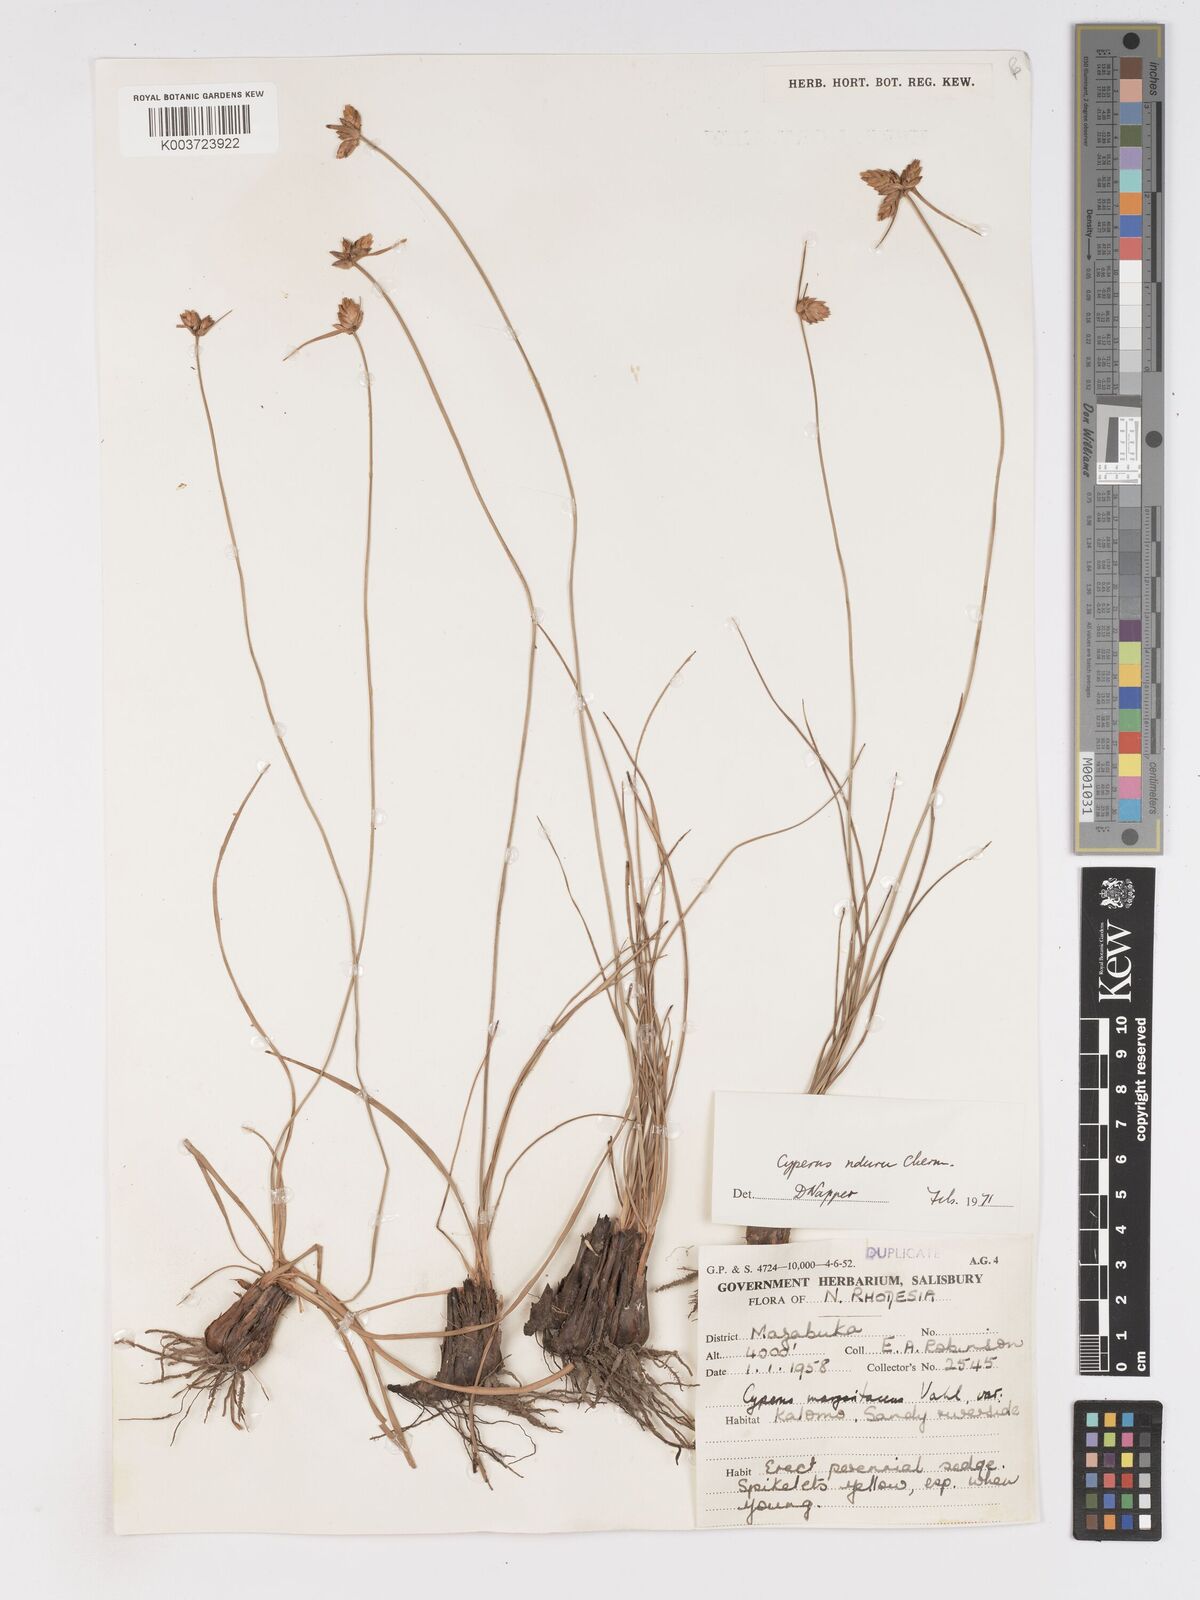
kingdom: Plantae
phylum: Tracheophyta
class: Liliopsida
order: Poales
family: Cyperaceae
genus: Cyperus
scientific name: Cyperus nduru
